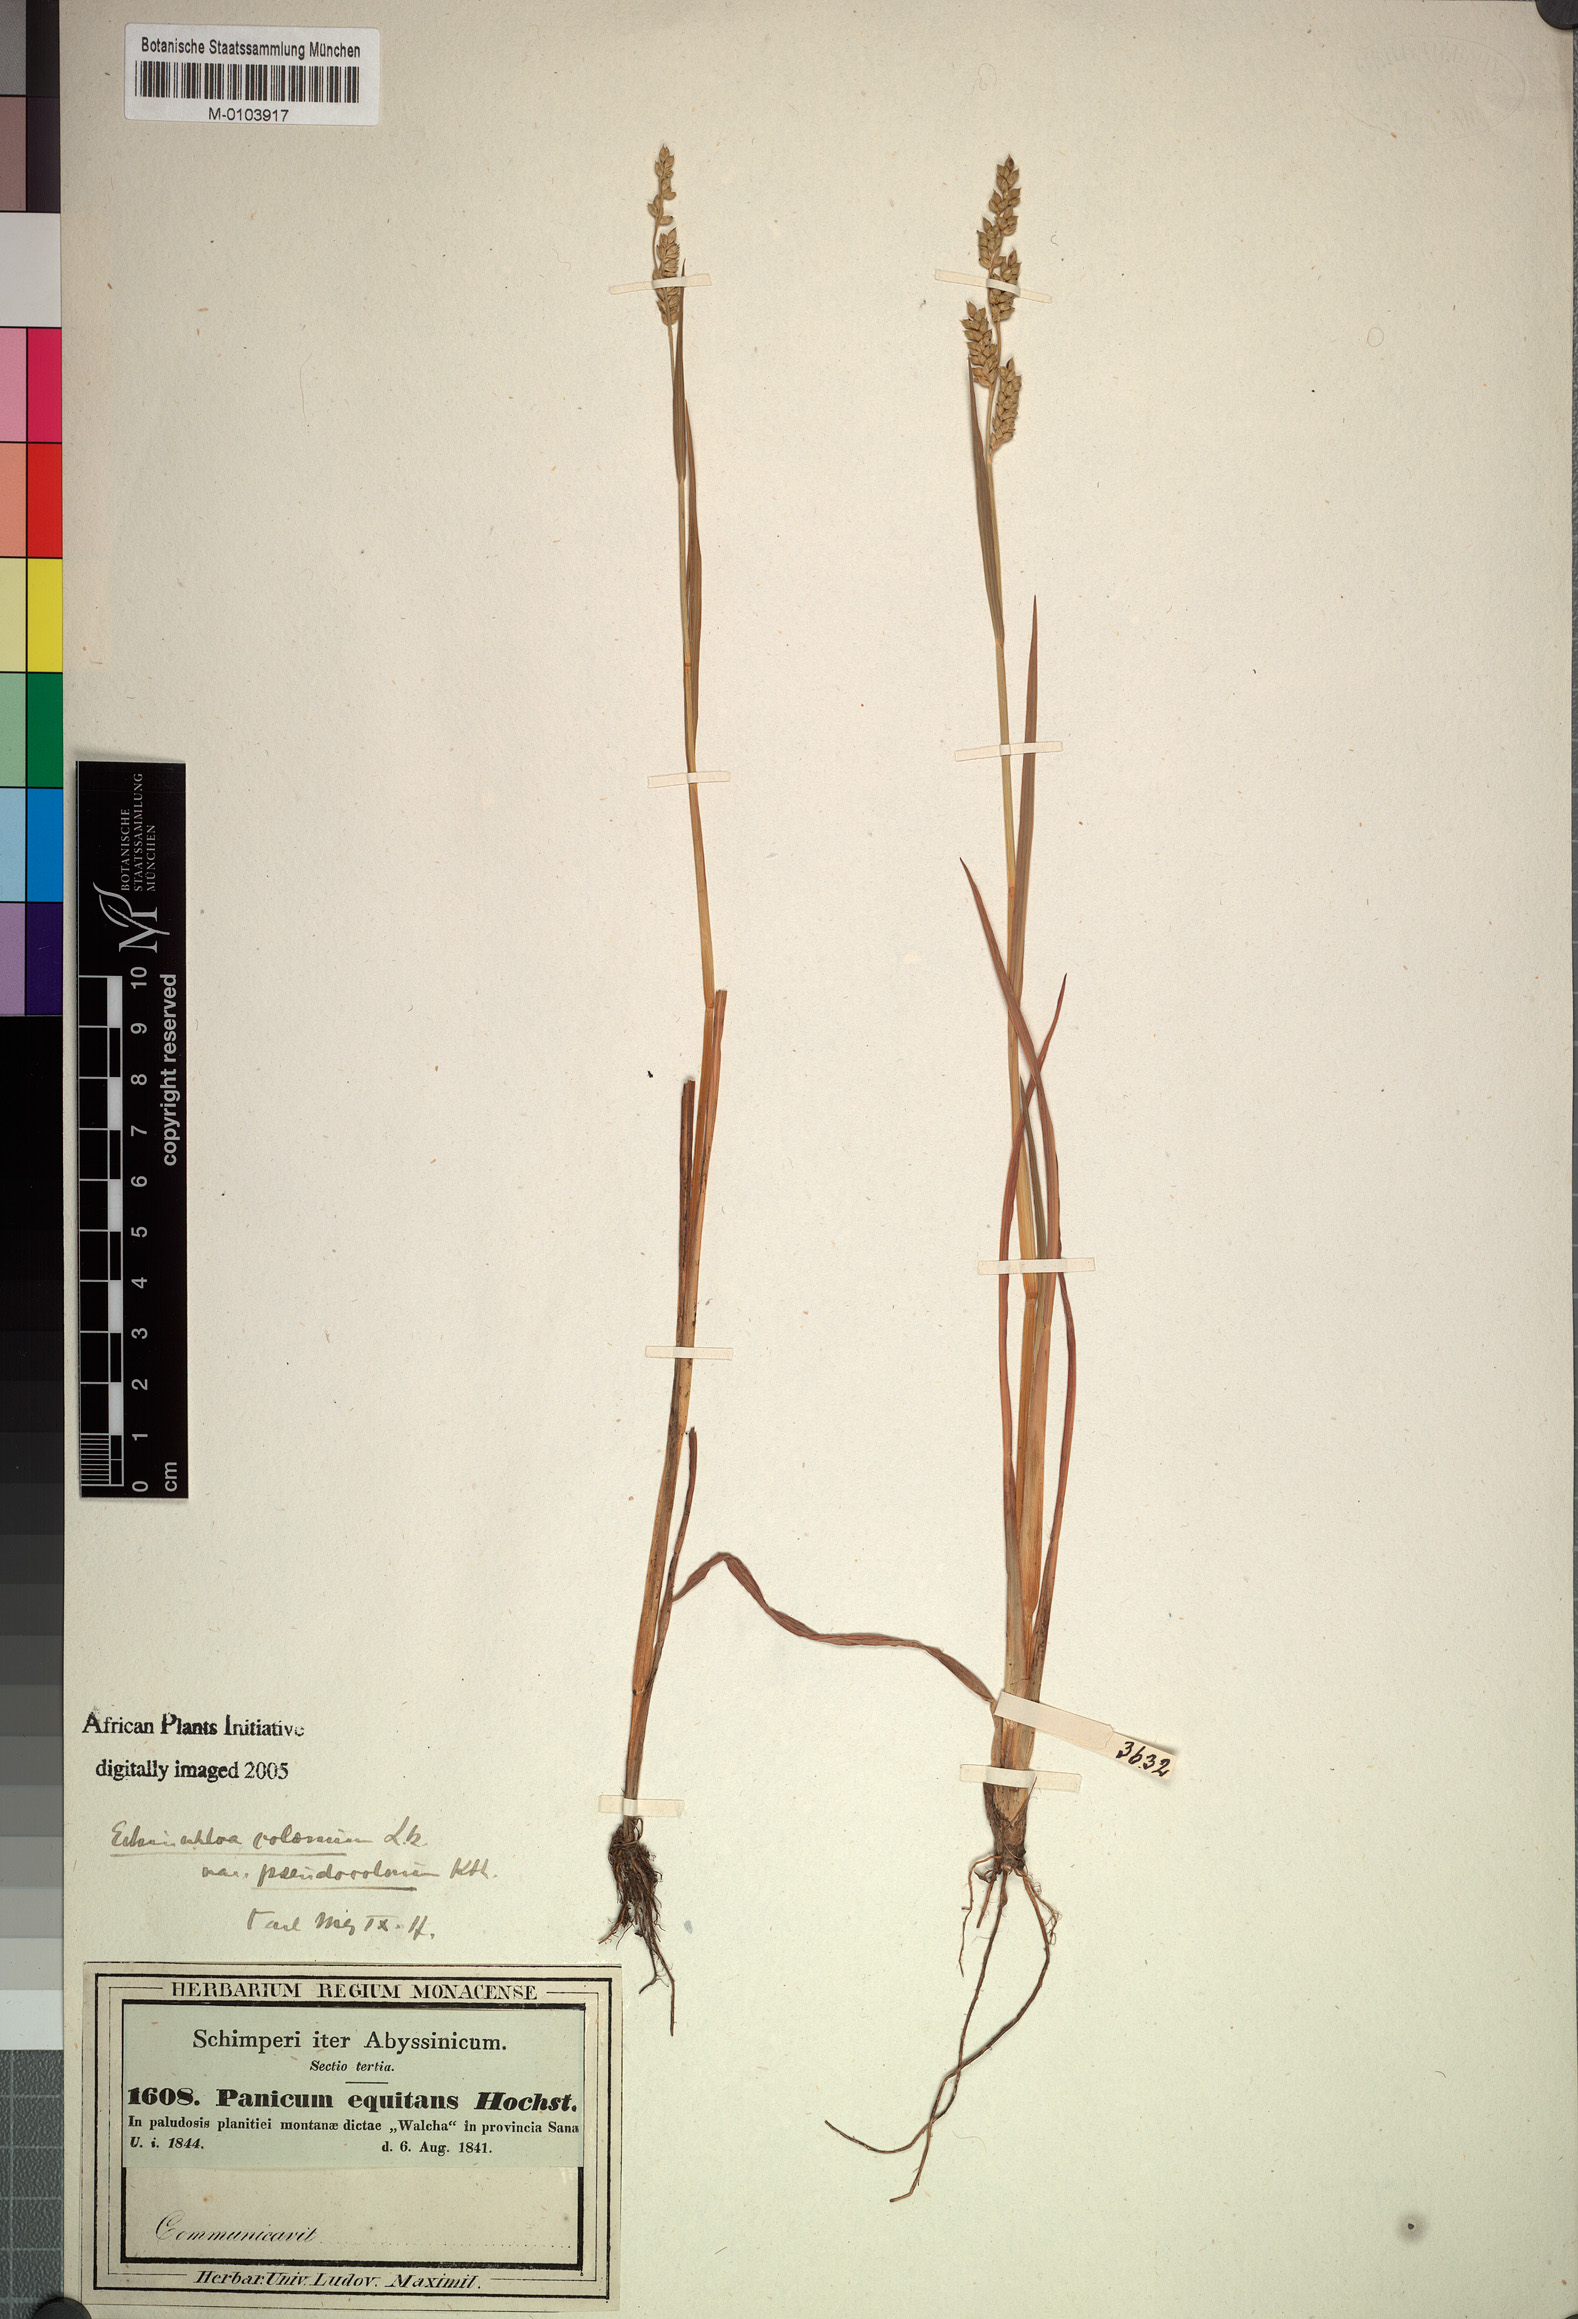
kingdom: Plantae
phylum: Tracheophyta
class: Liliopsida
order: Poales
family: Poaceae
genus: Echinochloa
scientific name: Echinochloa colonum
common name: Jungle rice
